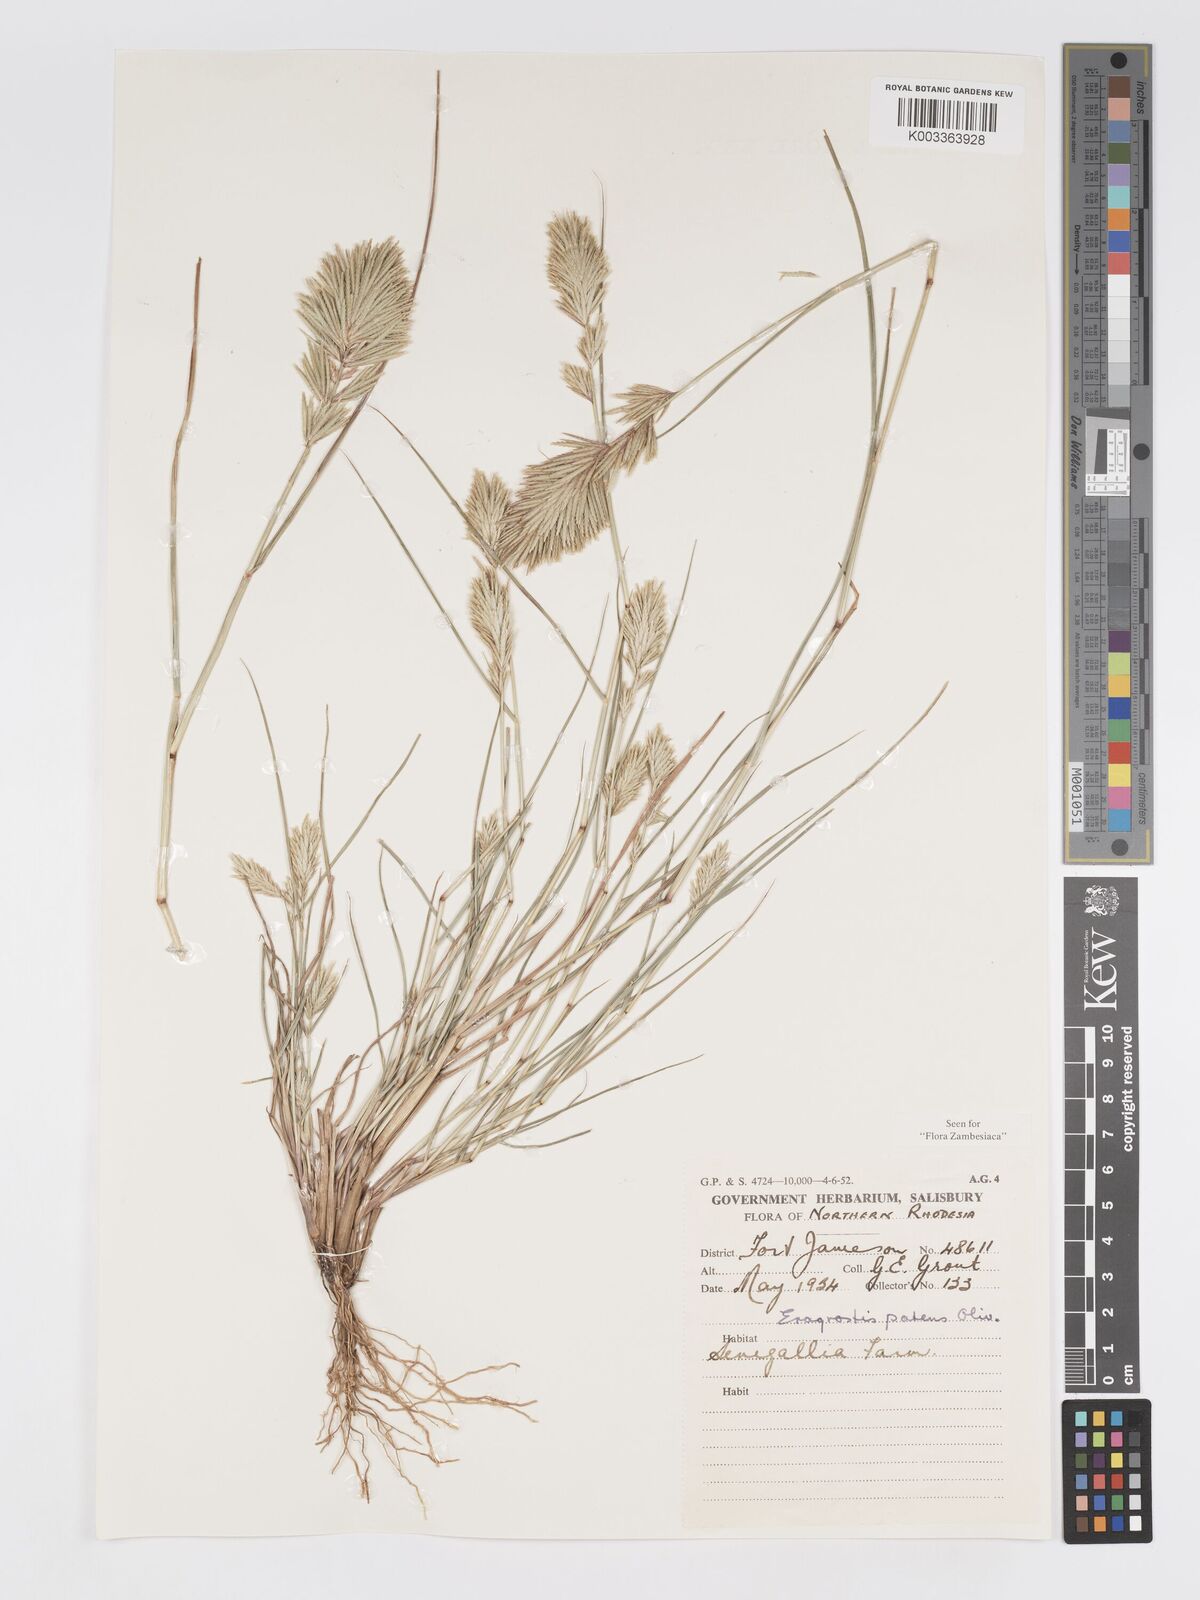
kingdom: Plantae
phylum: Tracheophyta
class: Liliopsida
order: Poales
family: Poaceae
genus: Eragrostis
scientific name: Eragrostis patens
